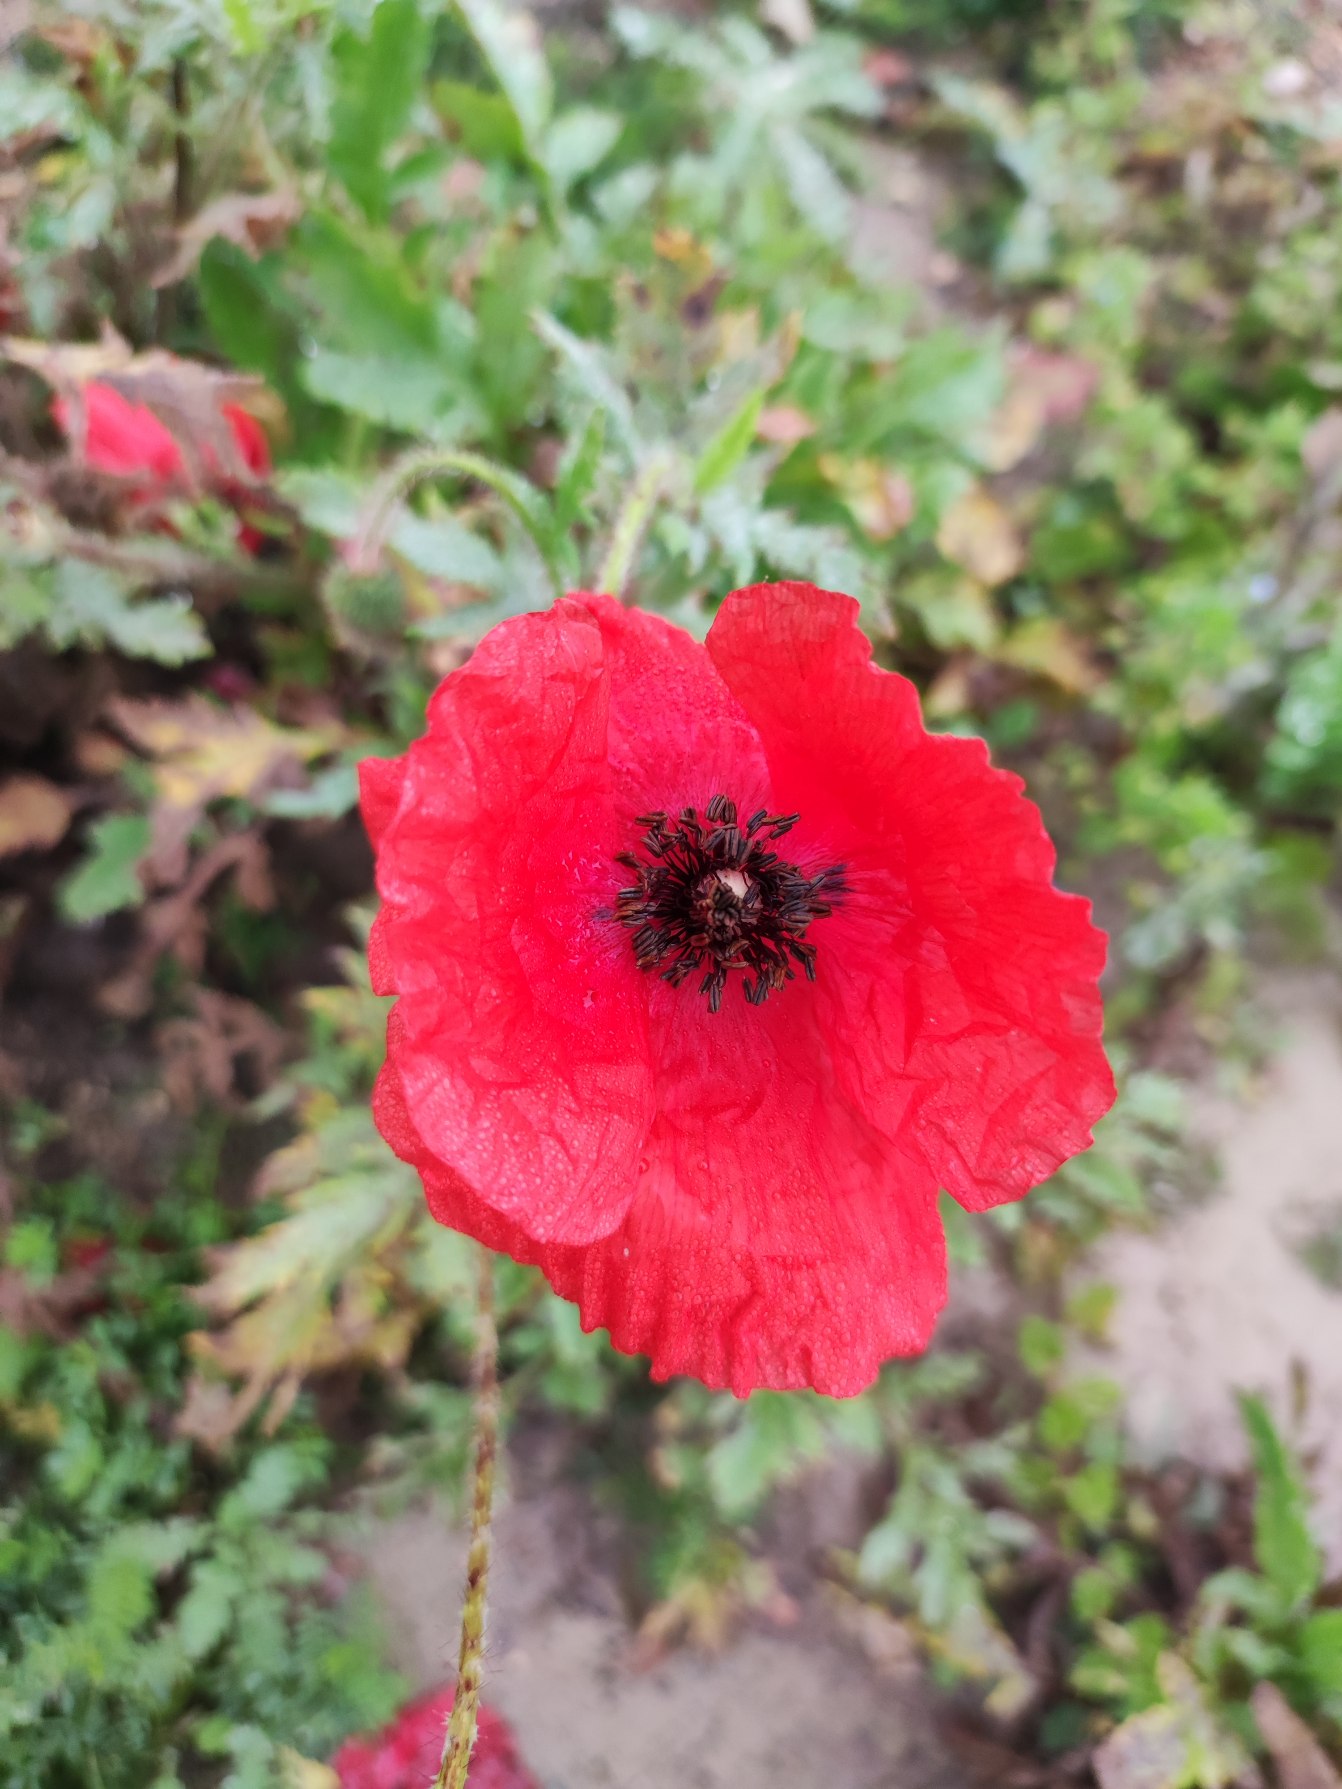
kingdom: Plantae
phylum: Tracheophyta
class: Magnoliopsida
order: Ranunculales
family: Papaveraceae
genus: Papaver
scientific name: Papaver rhoeas
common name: Korn-valmue
